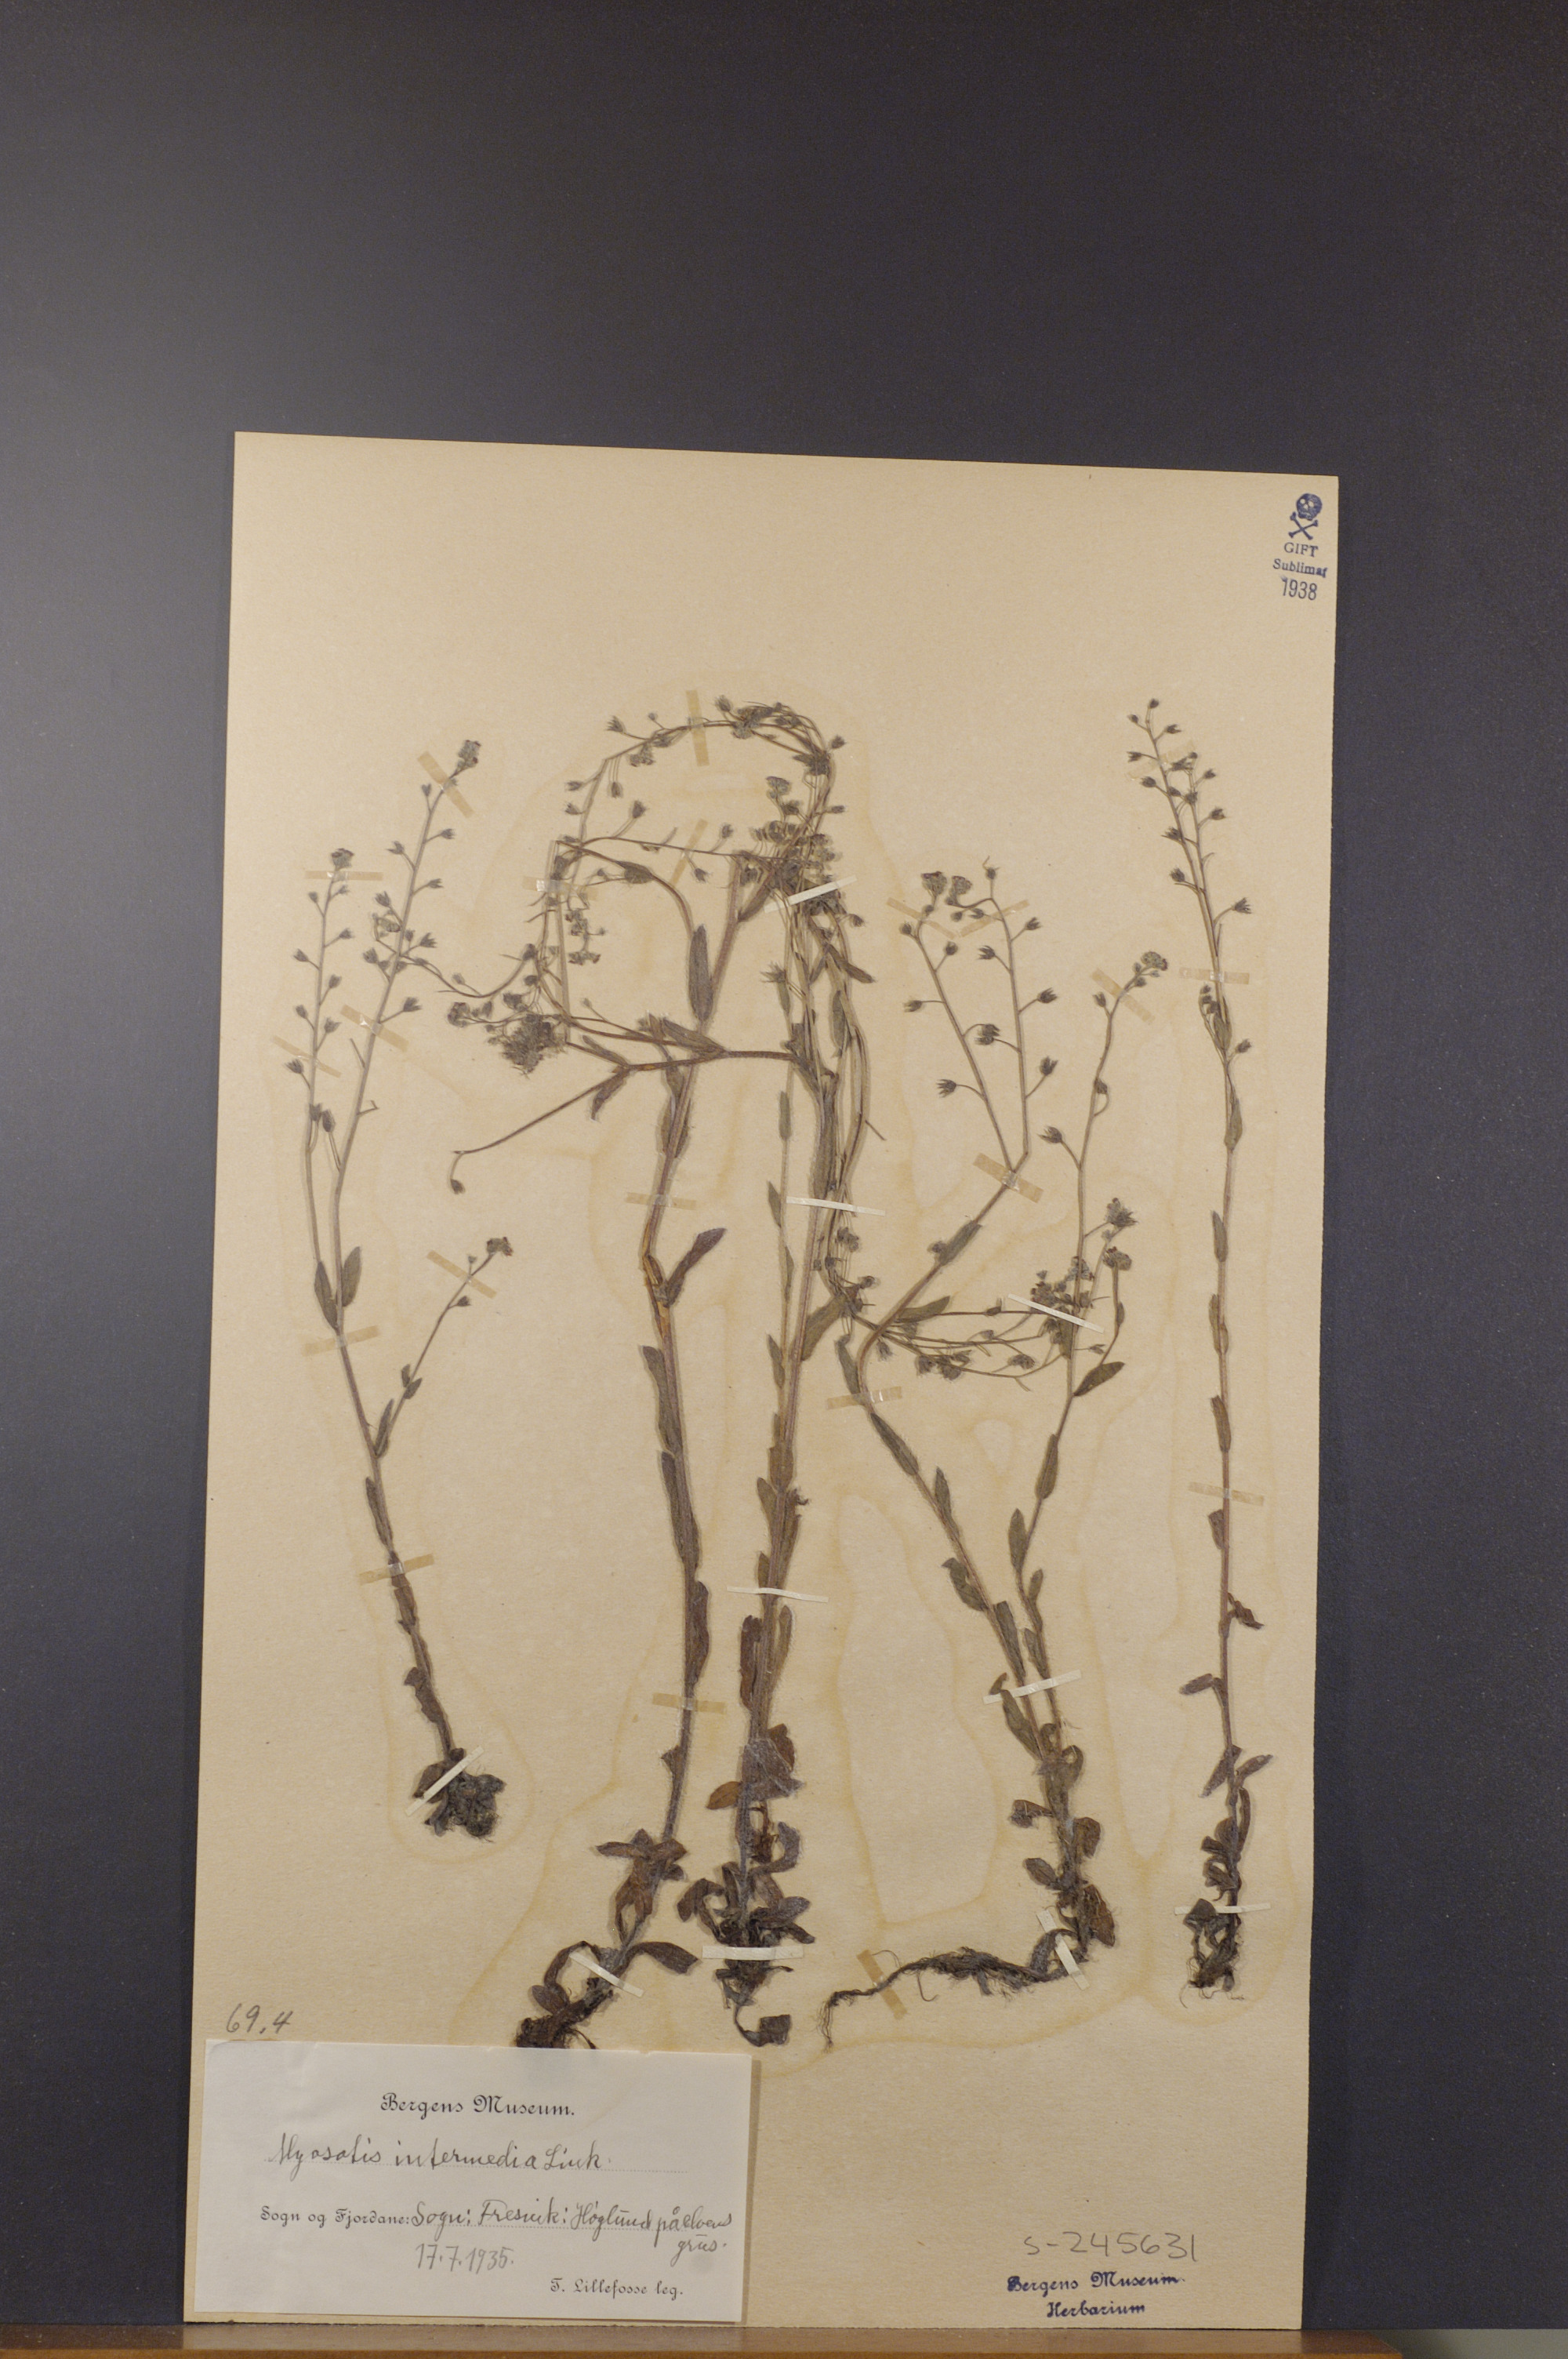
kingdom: Plantae
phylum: Tracheophyta
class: Magnoliopsida
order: Boraginales
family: Boraginaceae
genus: Myosotis
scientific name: Myosotis arvensis
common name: Field forget-me-not
